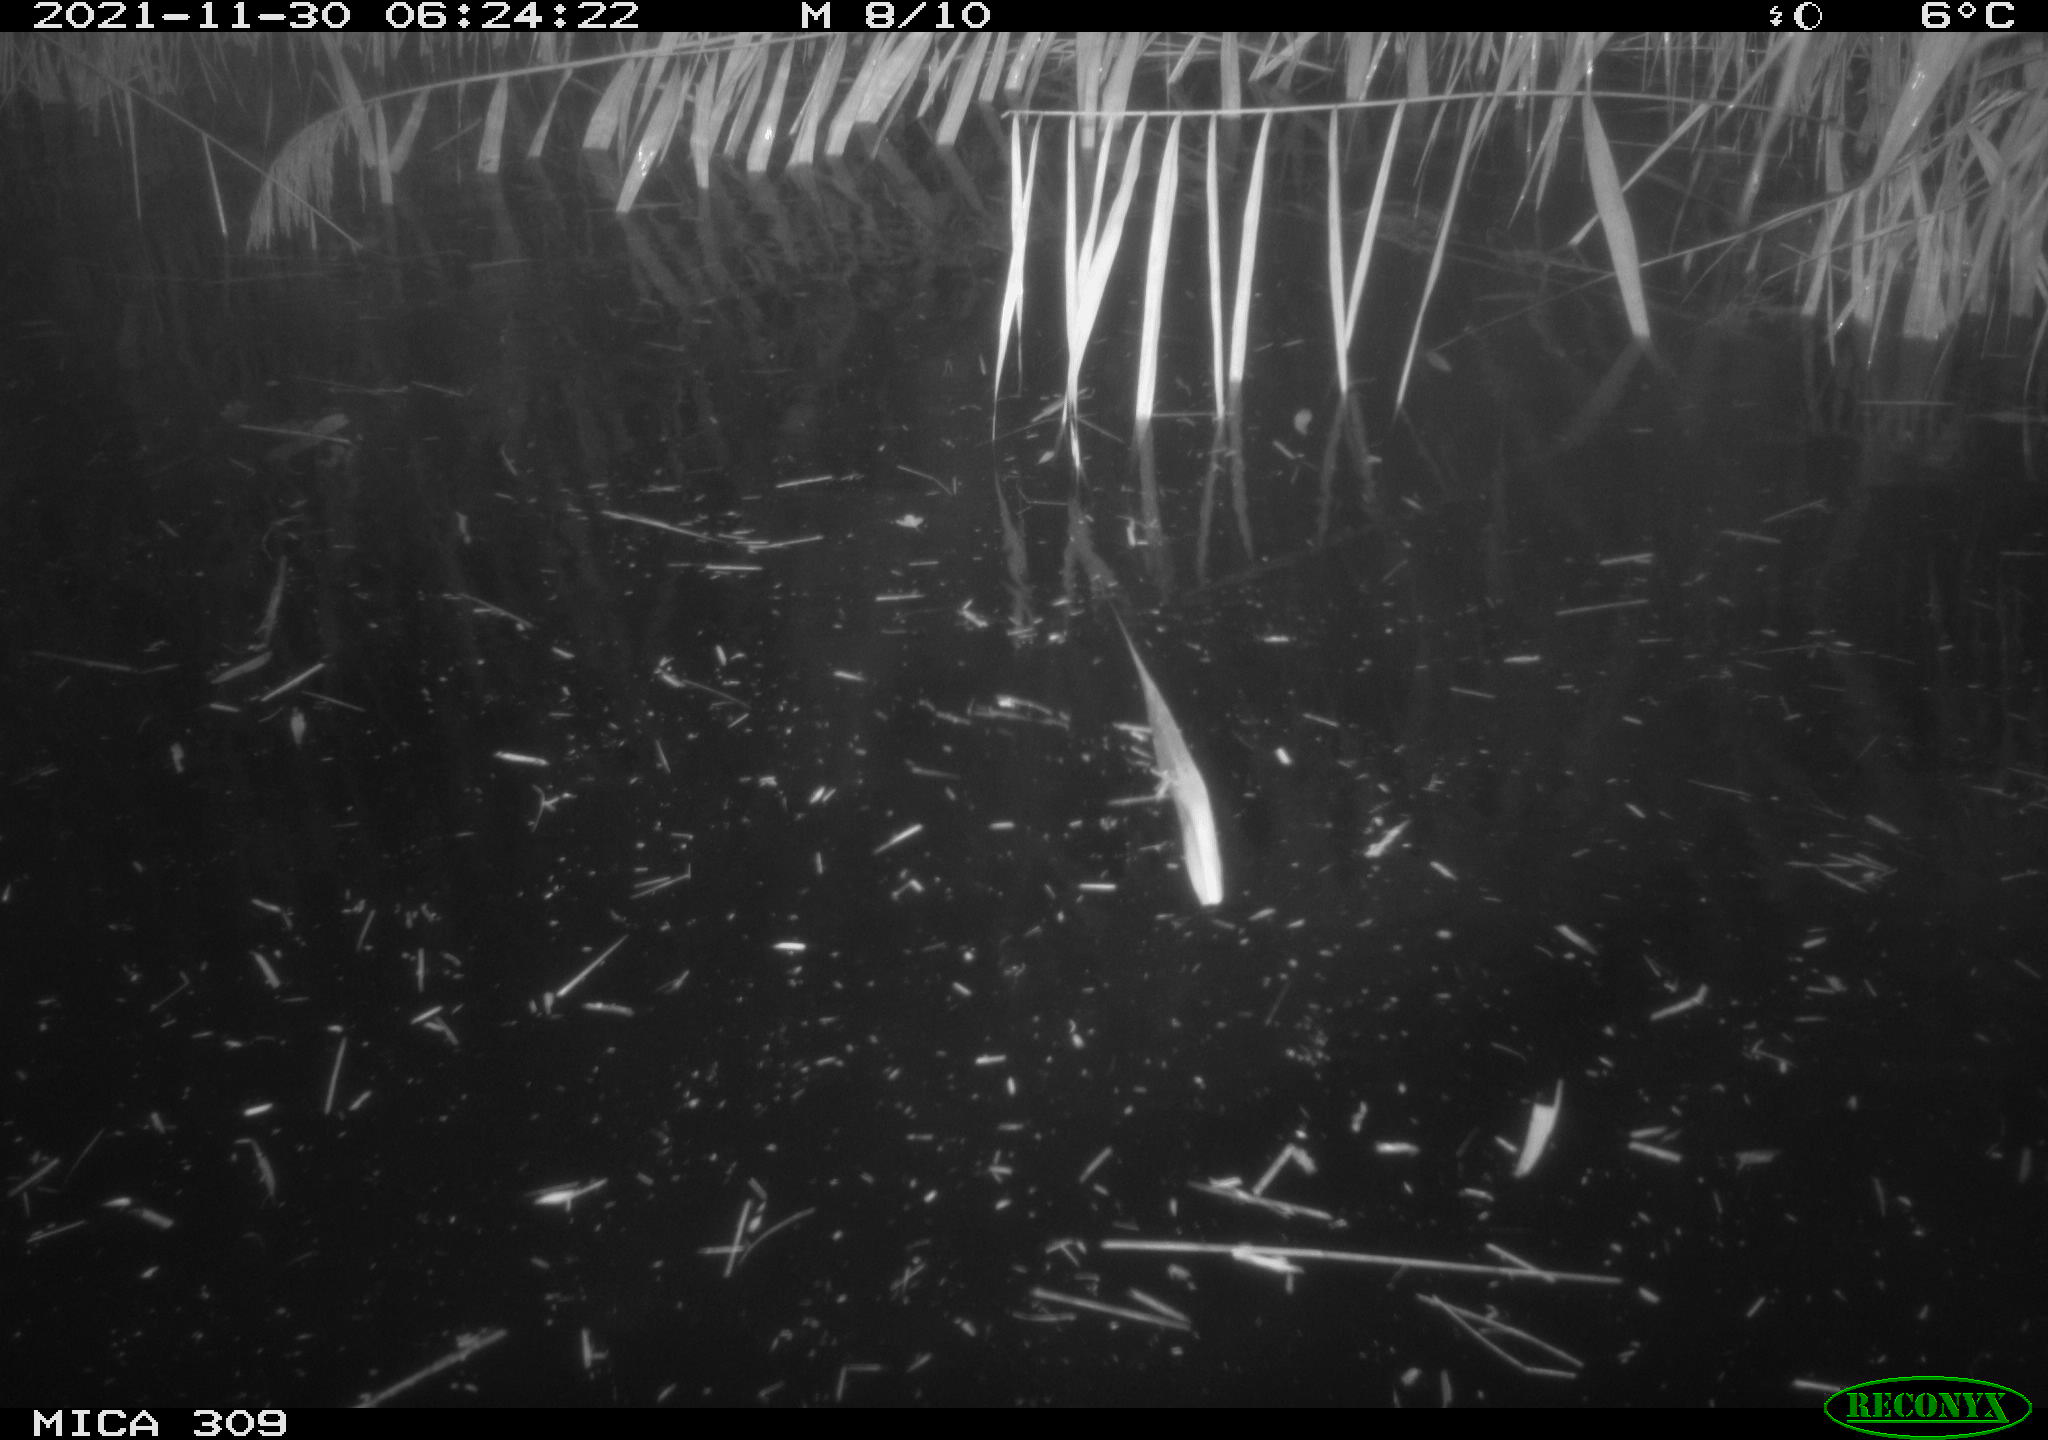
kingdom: Animalia
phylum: Chordata
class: Mammalia
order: Rodentia
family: Muridae
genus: Rattus
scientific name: Rattus norvegicus
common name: Brown rat
